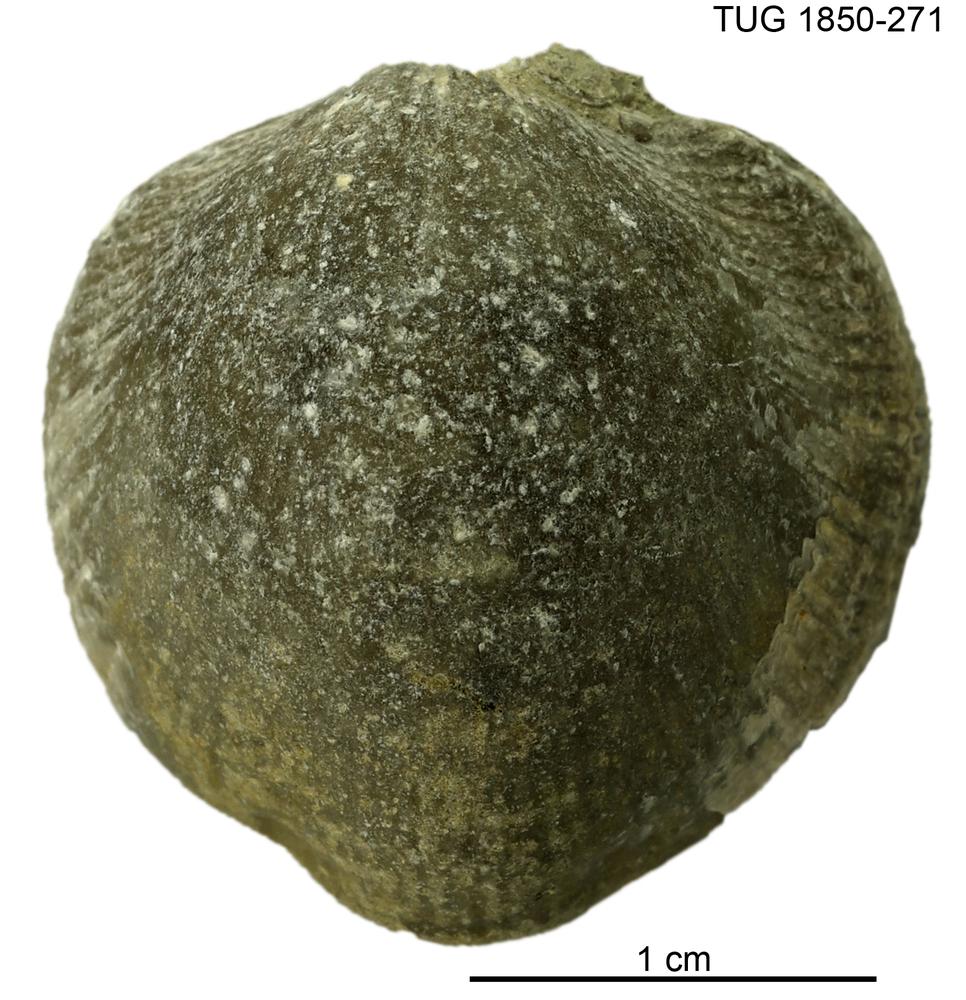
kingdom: Animalia
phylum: Brachiopoda
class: Rhynchonellata
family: Atrypidae
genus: Atrypa
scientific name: Atrypa
